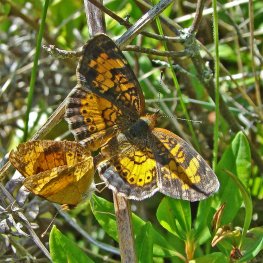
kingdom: Animalia
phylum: Arthropoda
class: Insecta
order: Lepidoptera
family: Nymphalidae
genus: Phyciodes
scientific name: Phyciodes tharos
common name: Northern Crescent
